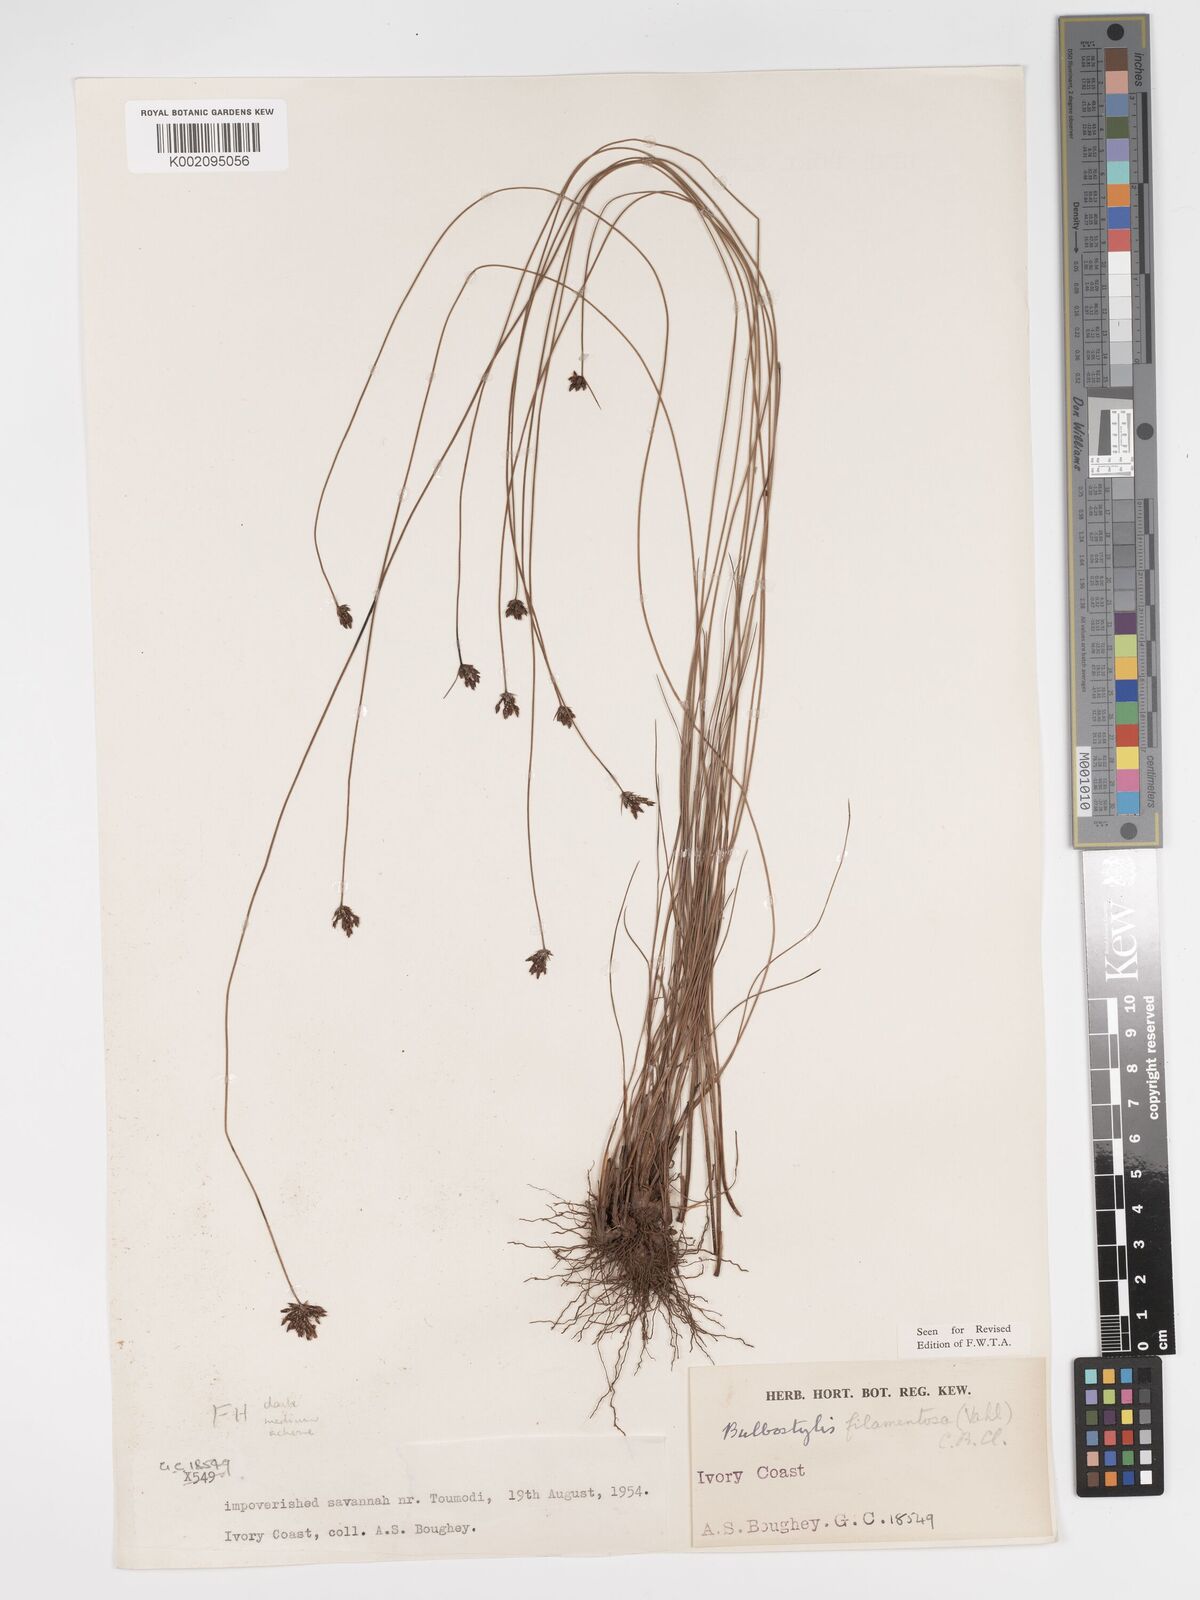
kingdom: Plantae
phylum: Tracheophyta
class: Liliopsida
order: Poales
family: Cyperaceae
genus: Bulbostylis
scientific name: Bulbostylis scabricaulis
